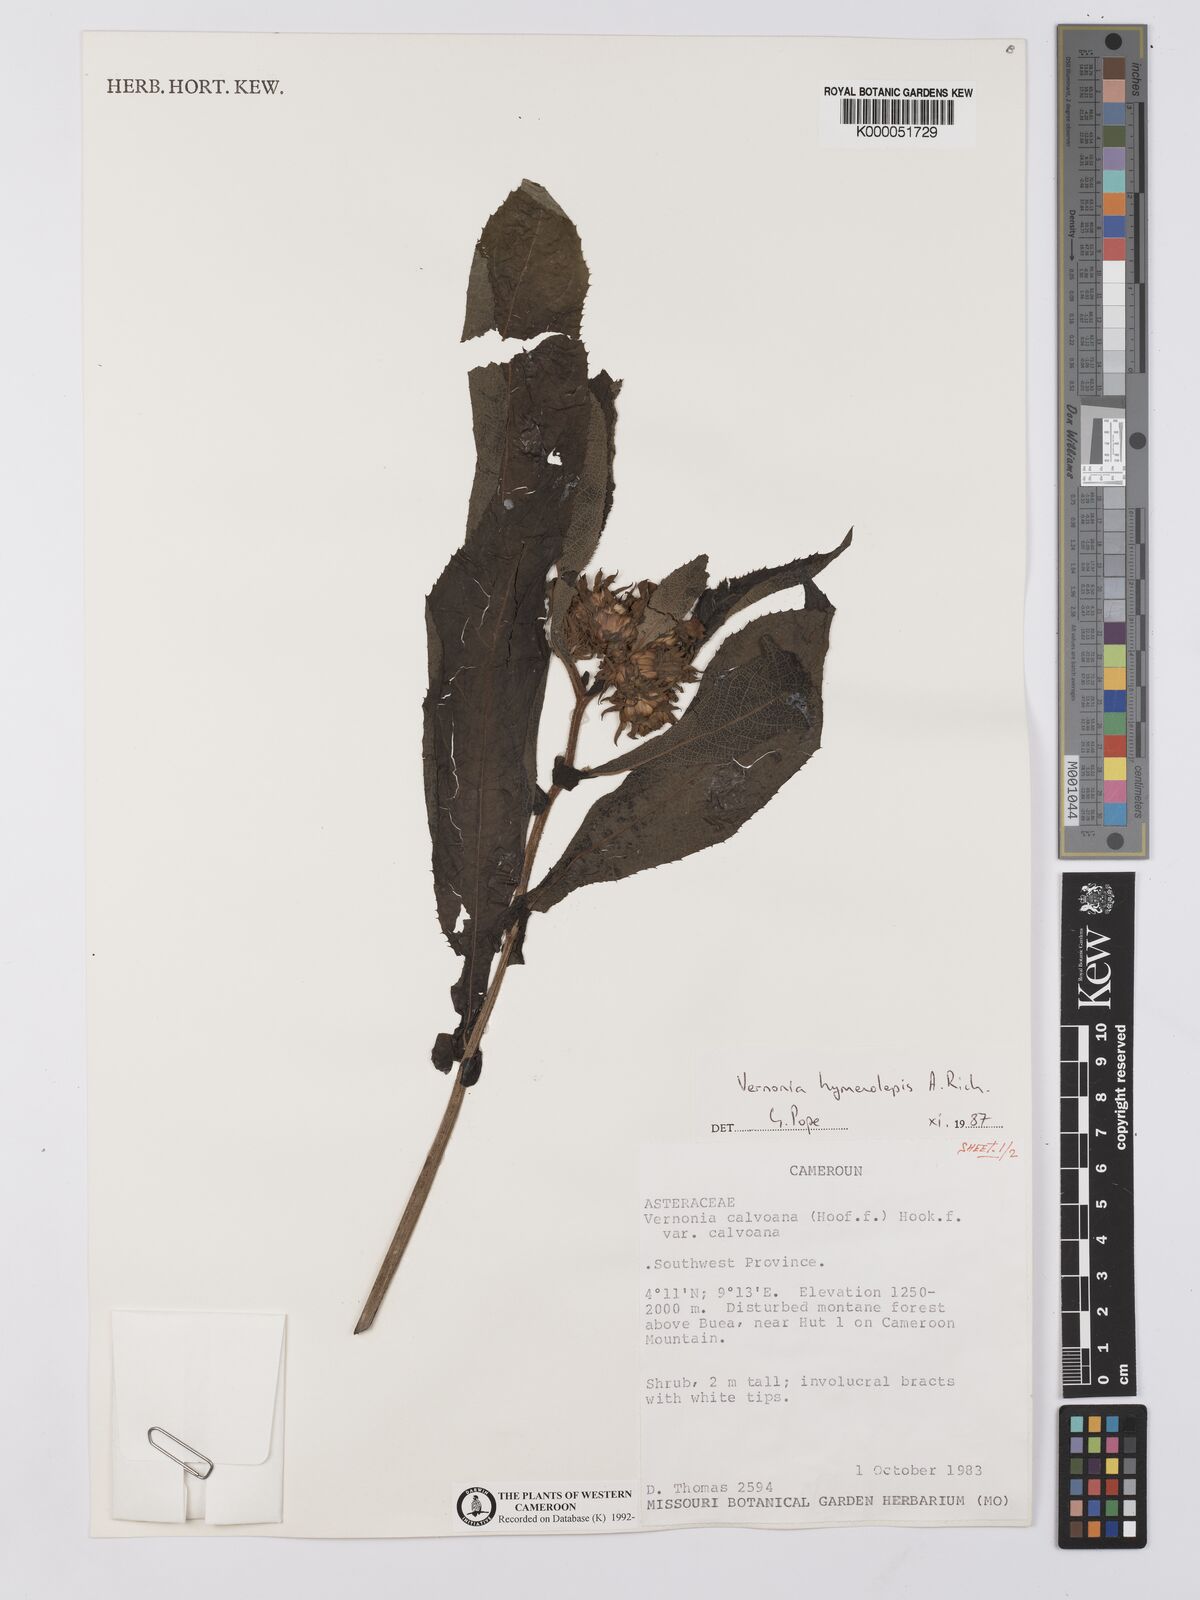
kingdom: Plantae
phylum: Tracheophyta
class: Magnoliopsida
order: Asterales
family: Asteraceae
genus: Baccharoides
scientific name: Baccharoides hymenolepis
